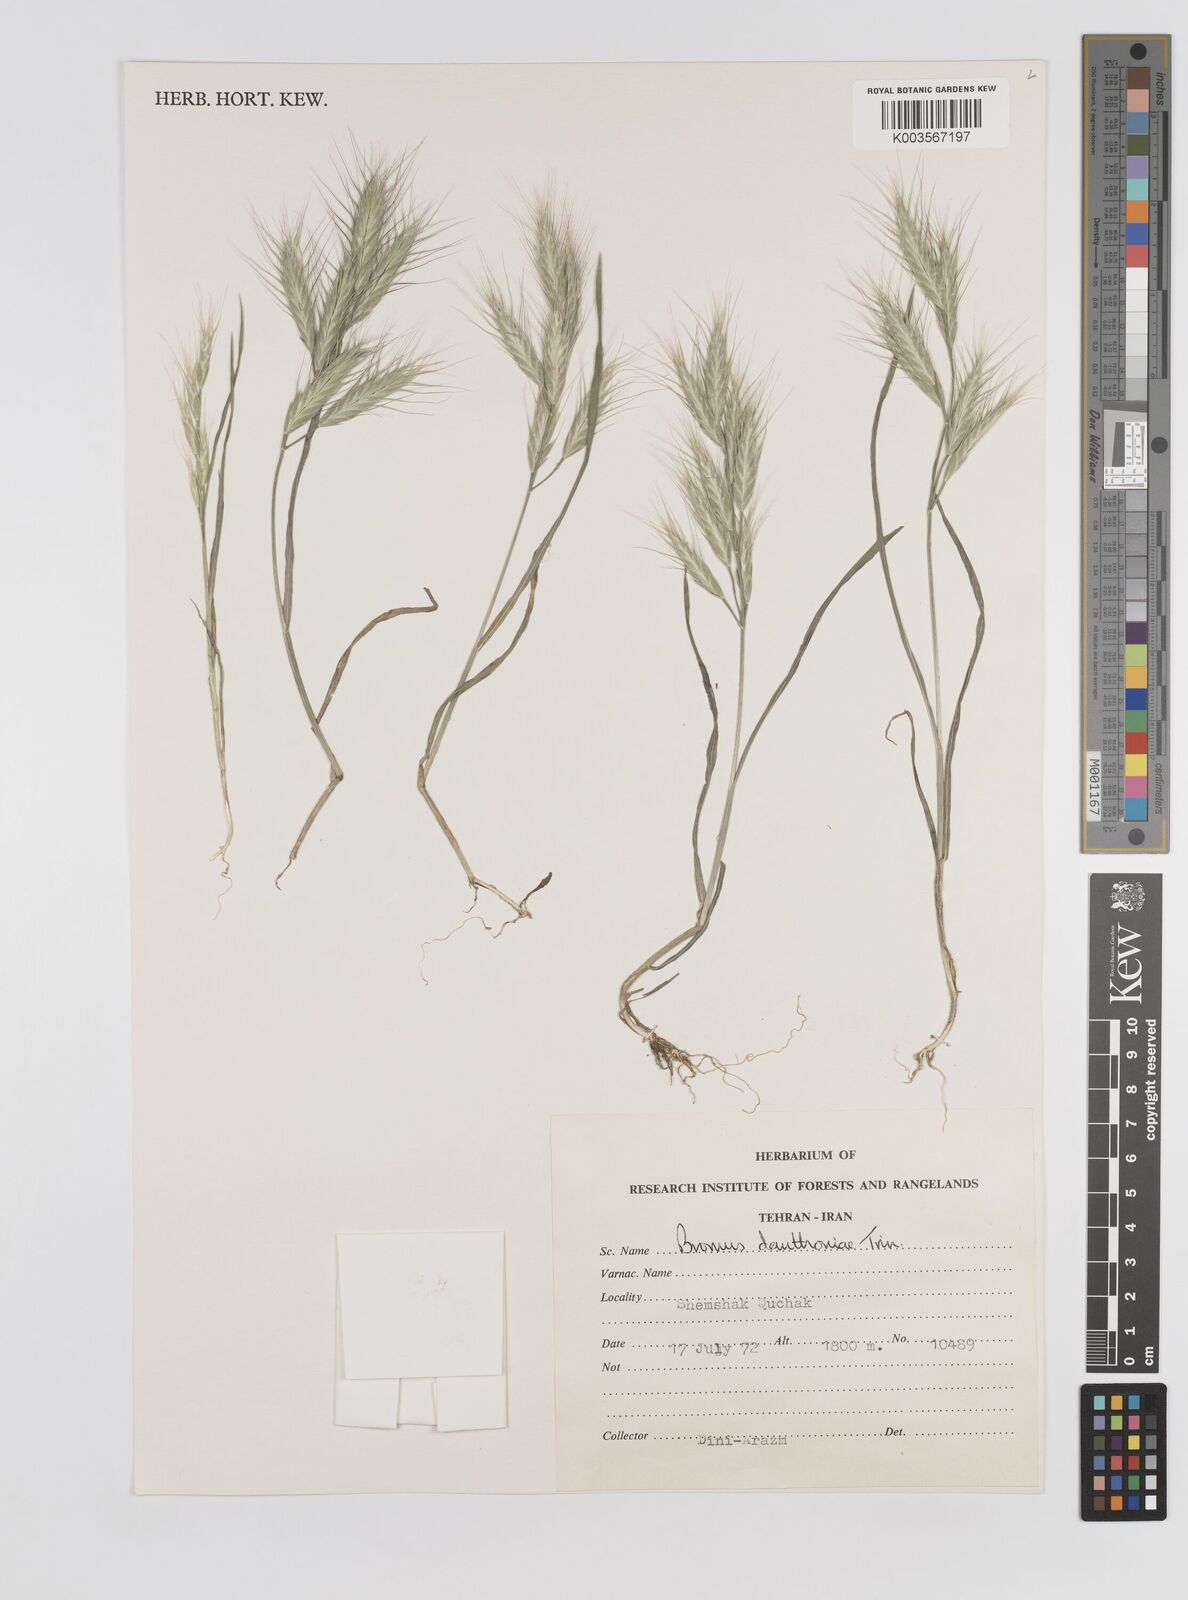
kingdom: Plantae
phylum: Tracheophyta
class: Liliopsida
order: Poales
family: Poaceae
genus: Bromus
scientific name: Bromus danthoniae
